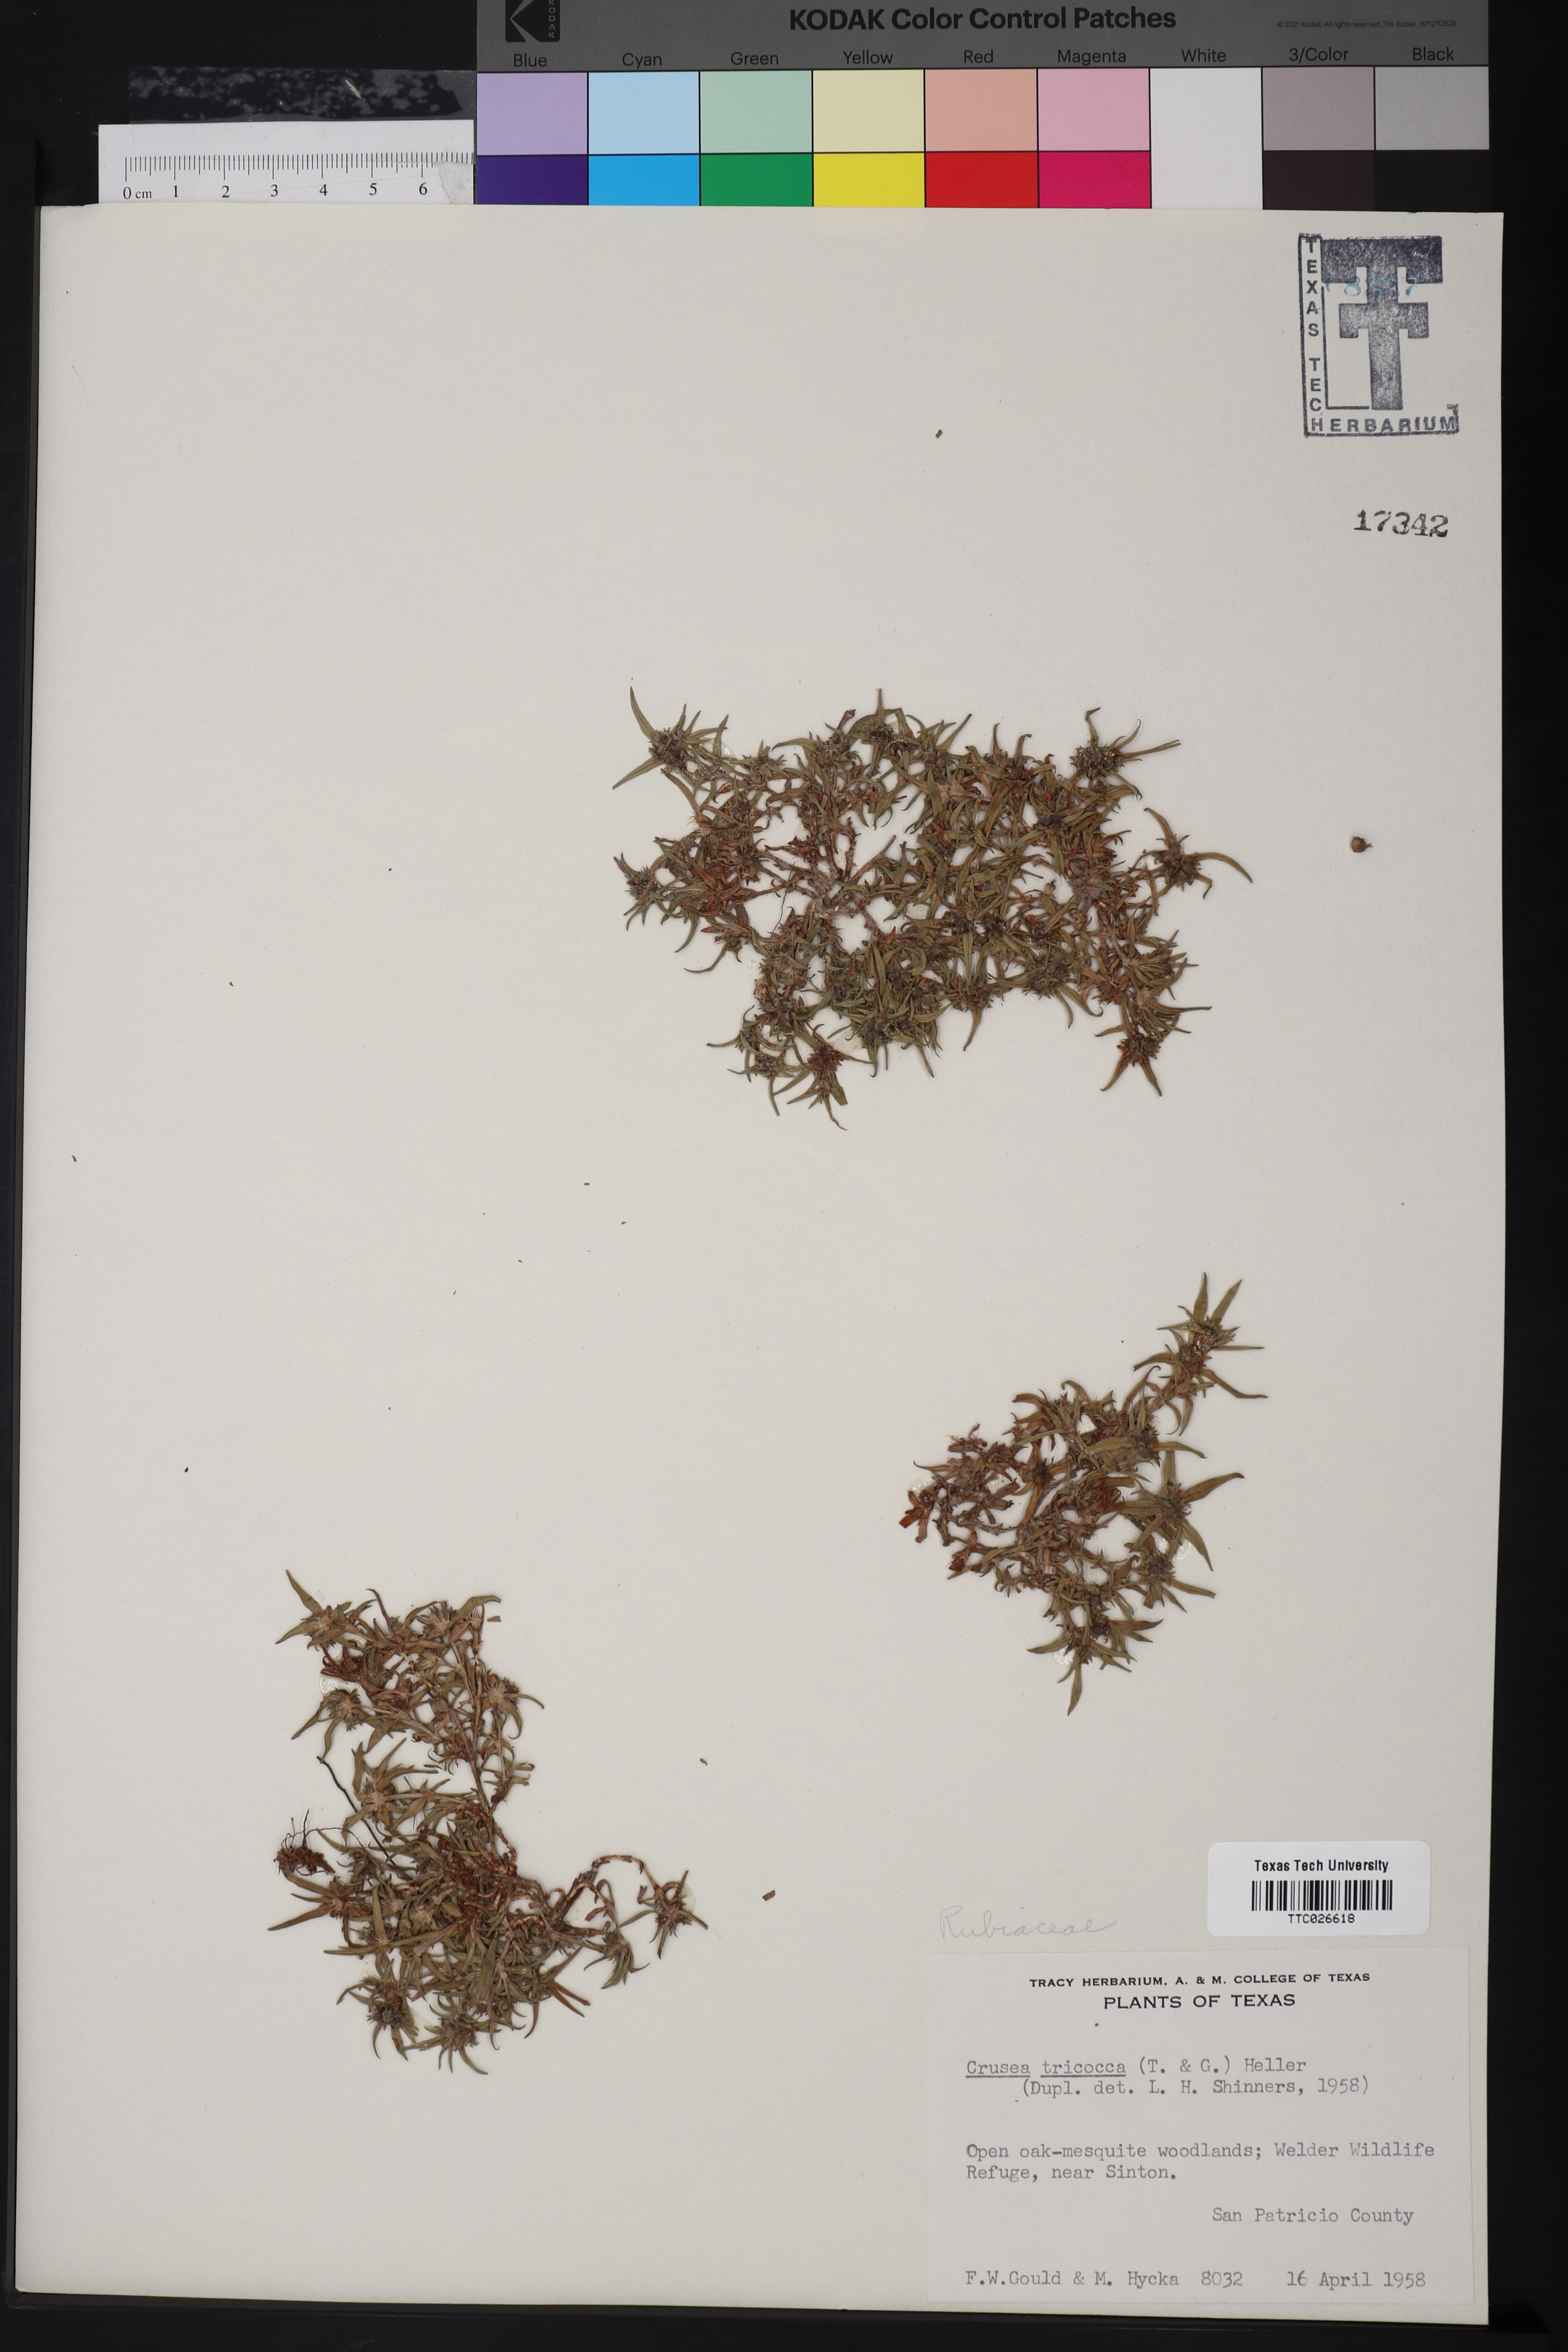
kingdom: Plantae
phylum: Tracheophyta
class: Magnoliopsida
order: Gentianales
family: Rubiaceae
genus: Richardia
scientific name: Richardia tricocca
